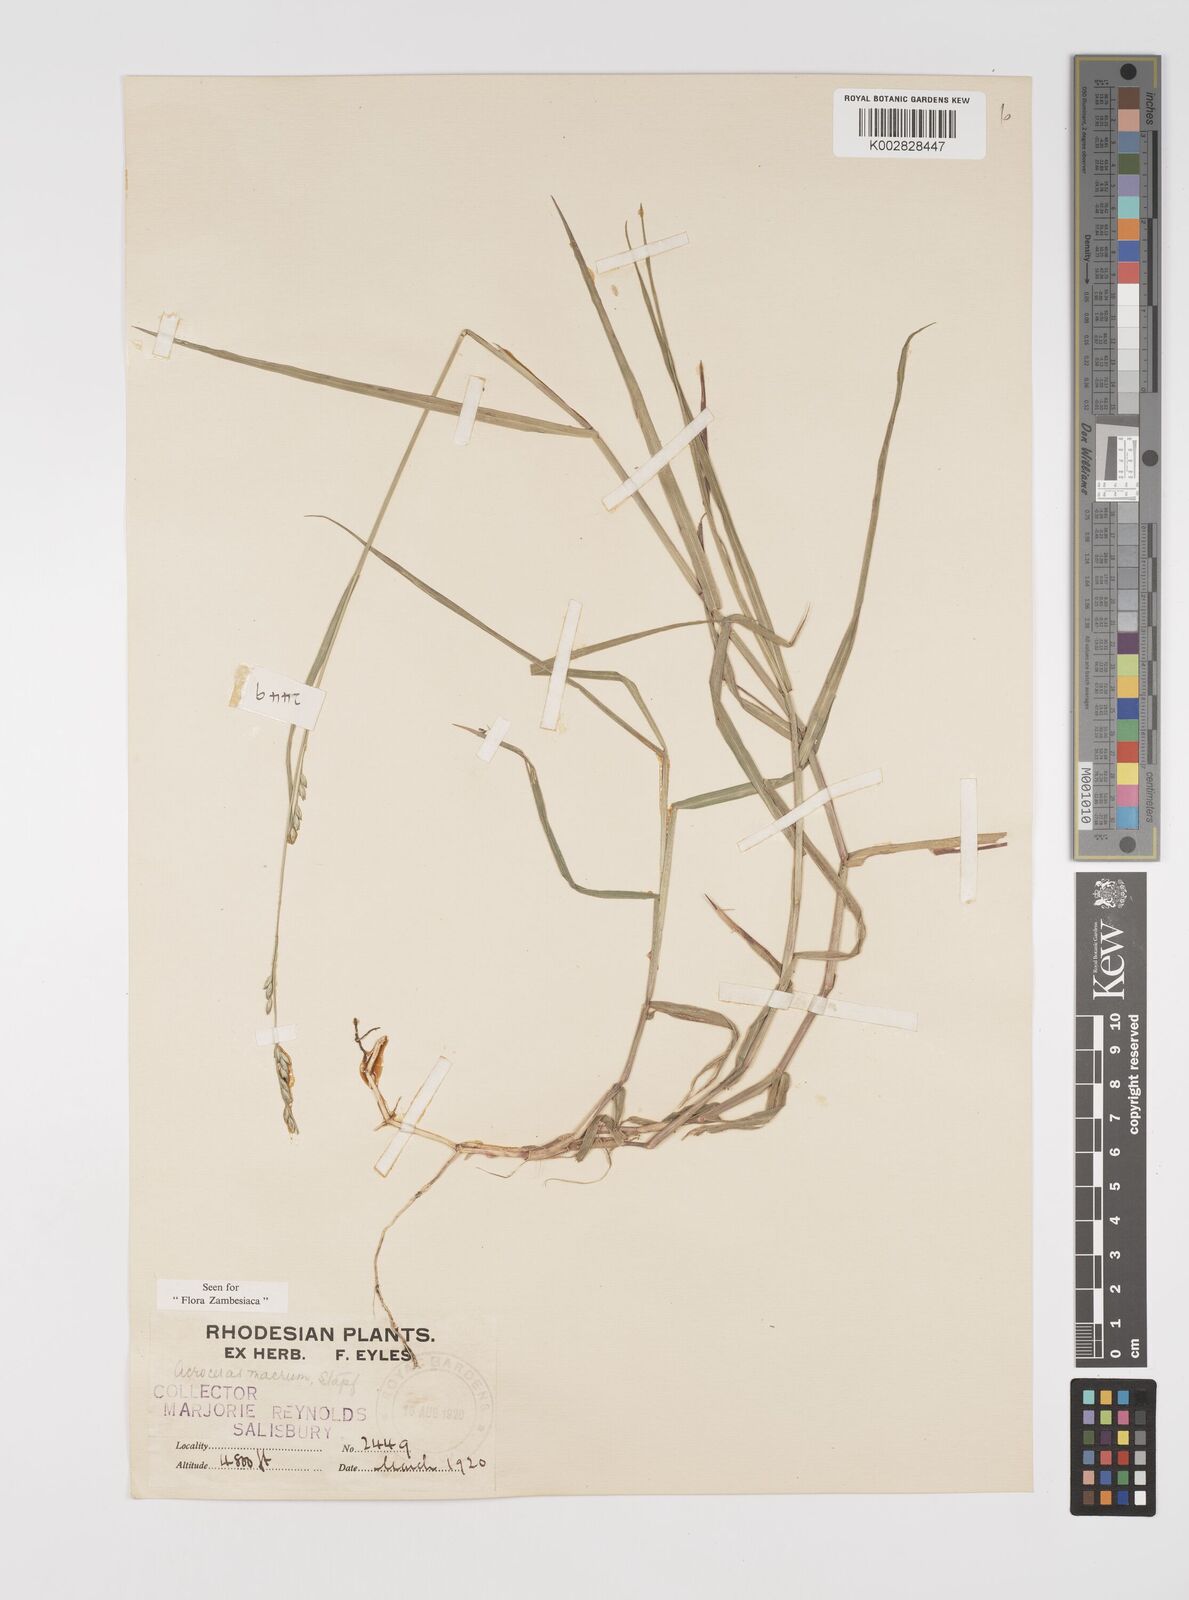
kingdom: Plantae
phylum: Tracheophyta
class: Liliopsida
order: Poales
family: Poaceae
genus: Acroceras
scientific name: Acroceras macrum
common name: Nyl grass
